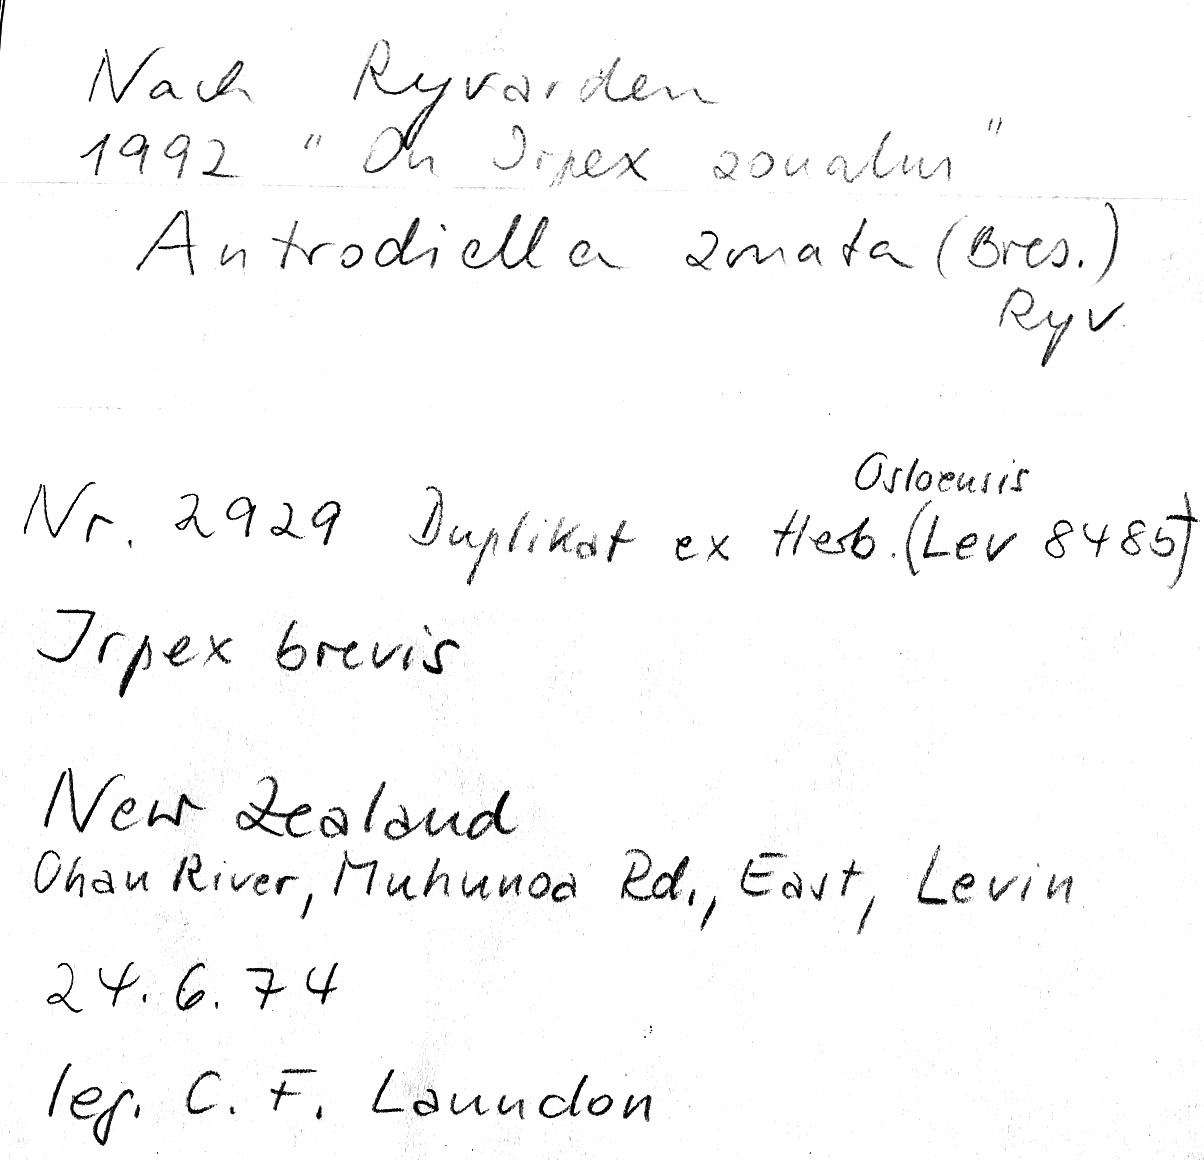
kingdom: Fungi
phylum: Basidiomycota
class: Agaricomycetes
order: Polyporales
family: Cerrenaceae
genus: Cerrena
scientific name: Cerrena zonata
